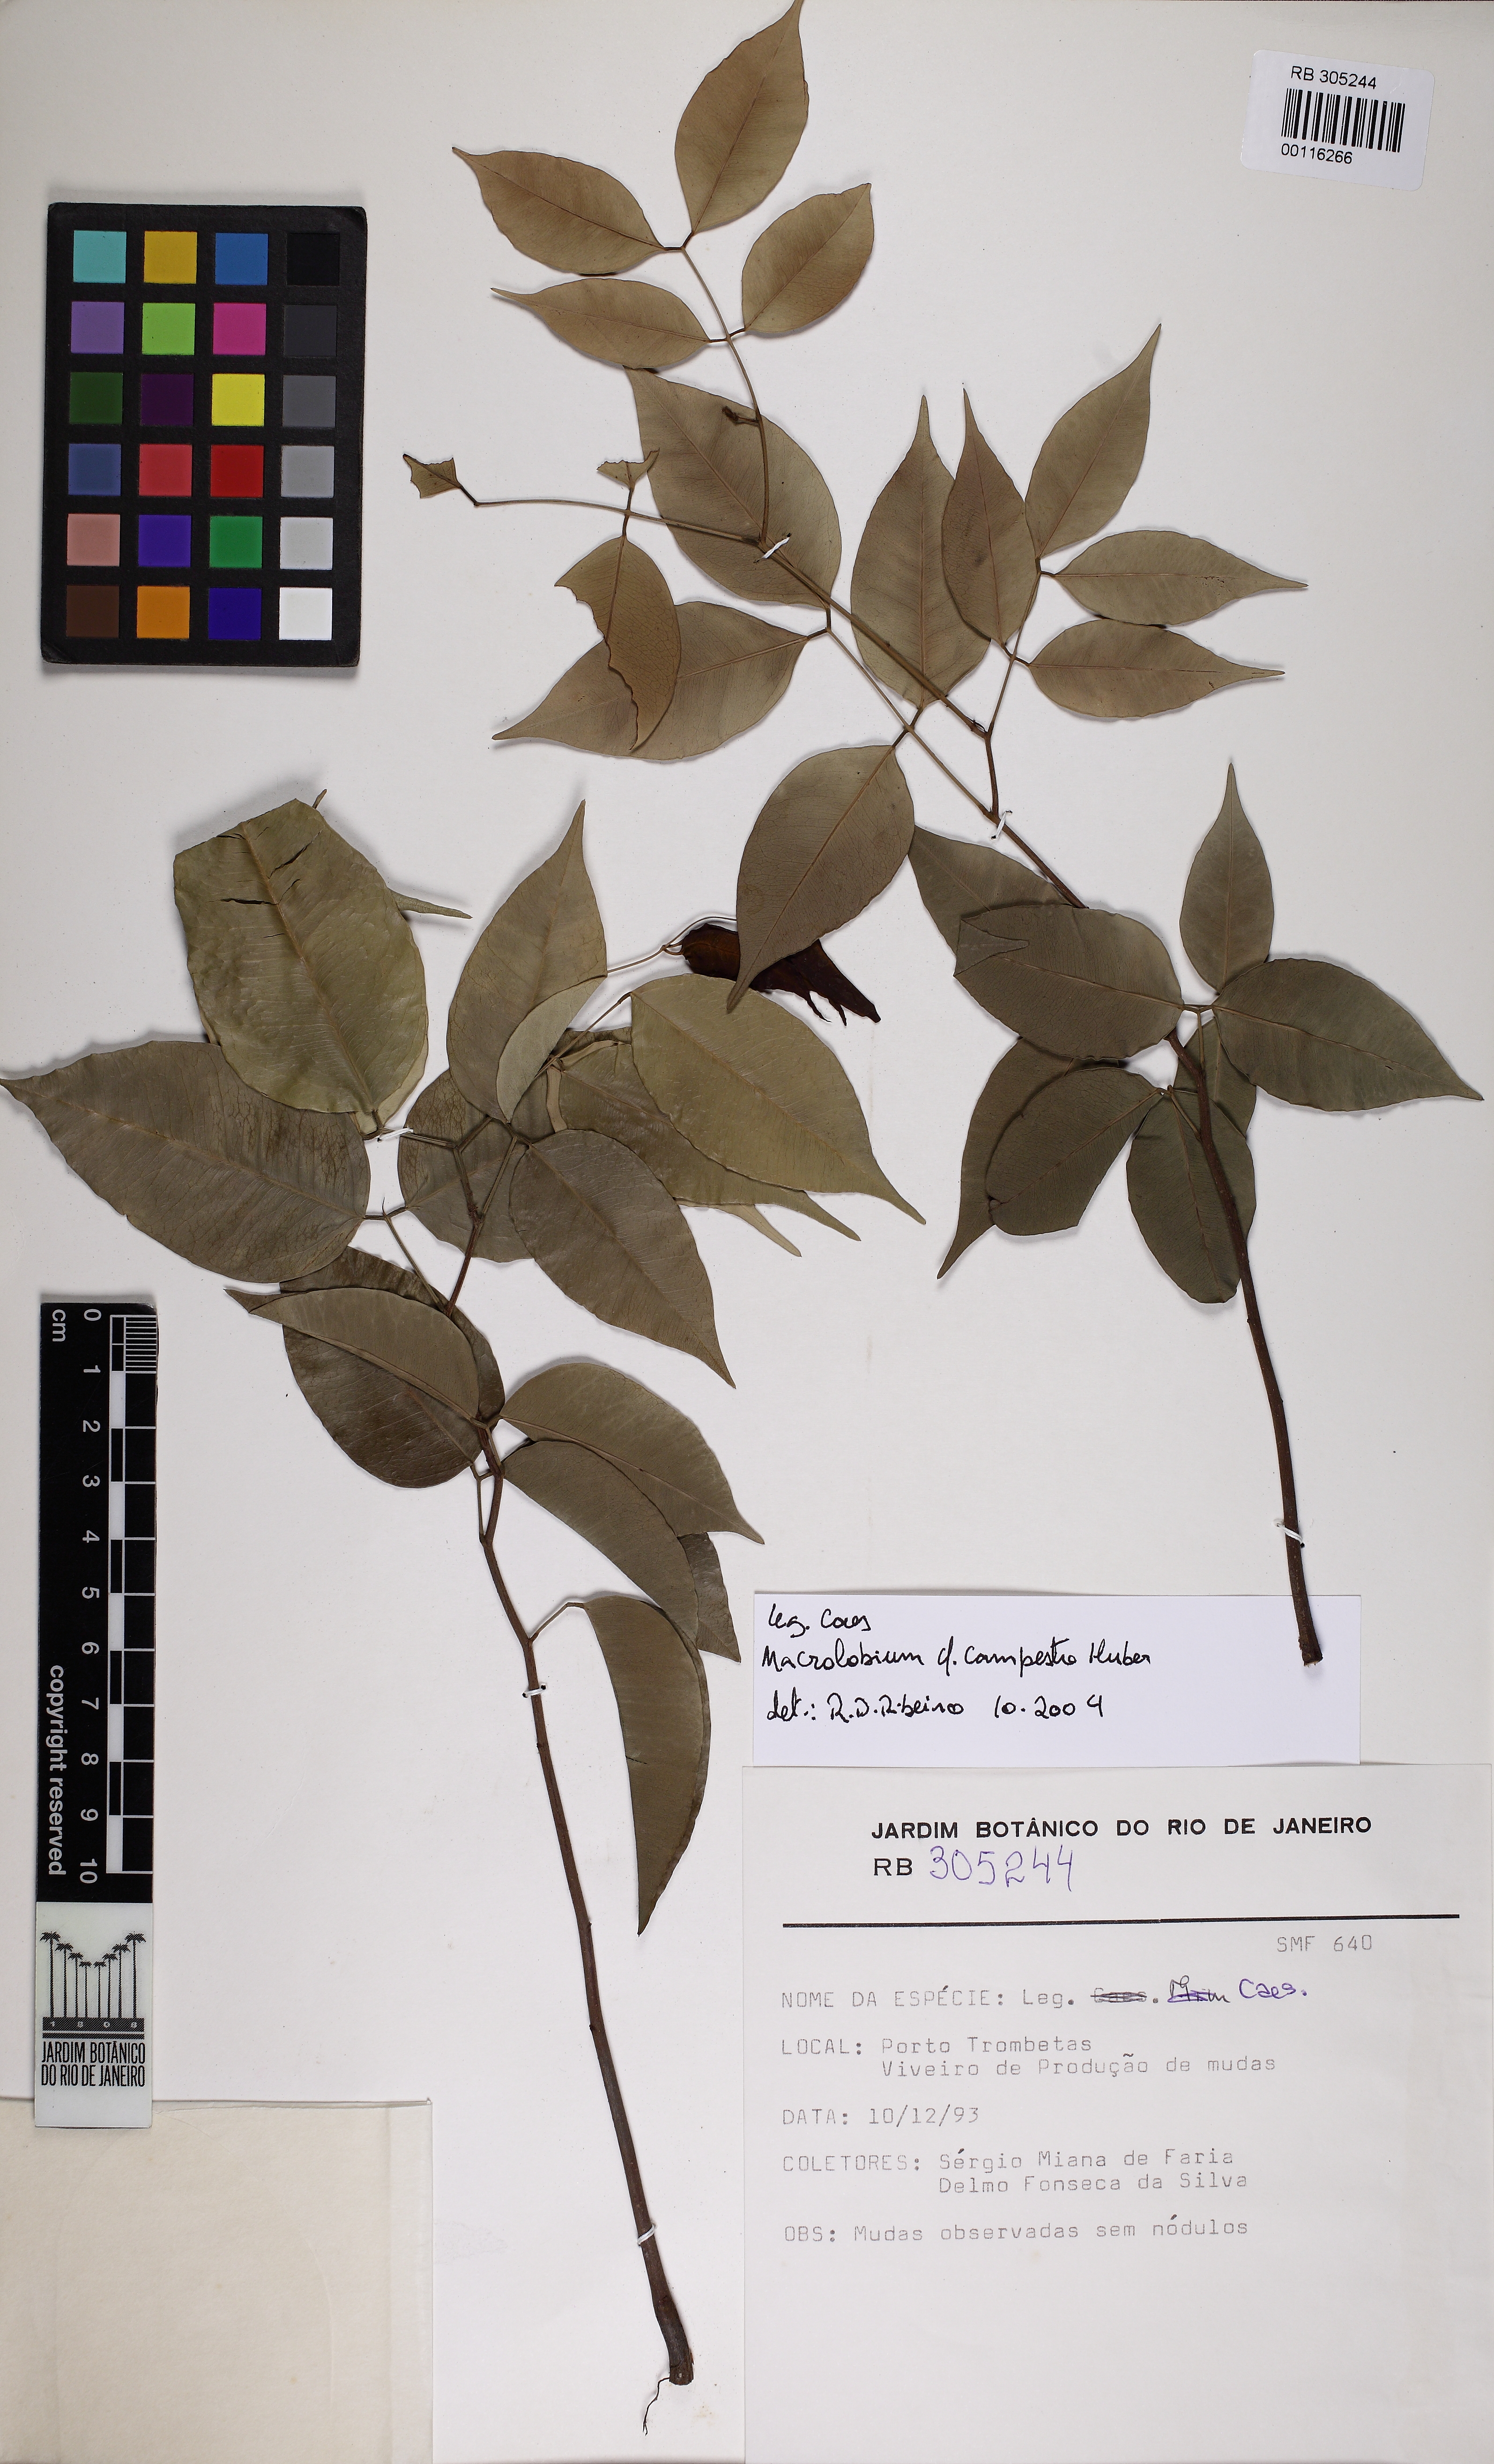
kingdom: Plantae
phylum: Tracheophyta
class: Magnoliopsida
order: Fabales
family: Fabaceae
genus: Macrolobium
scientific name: Macrolobium campestre
